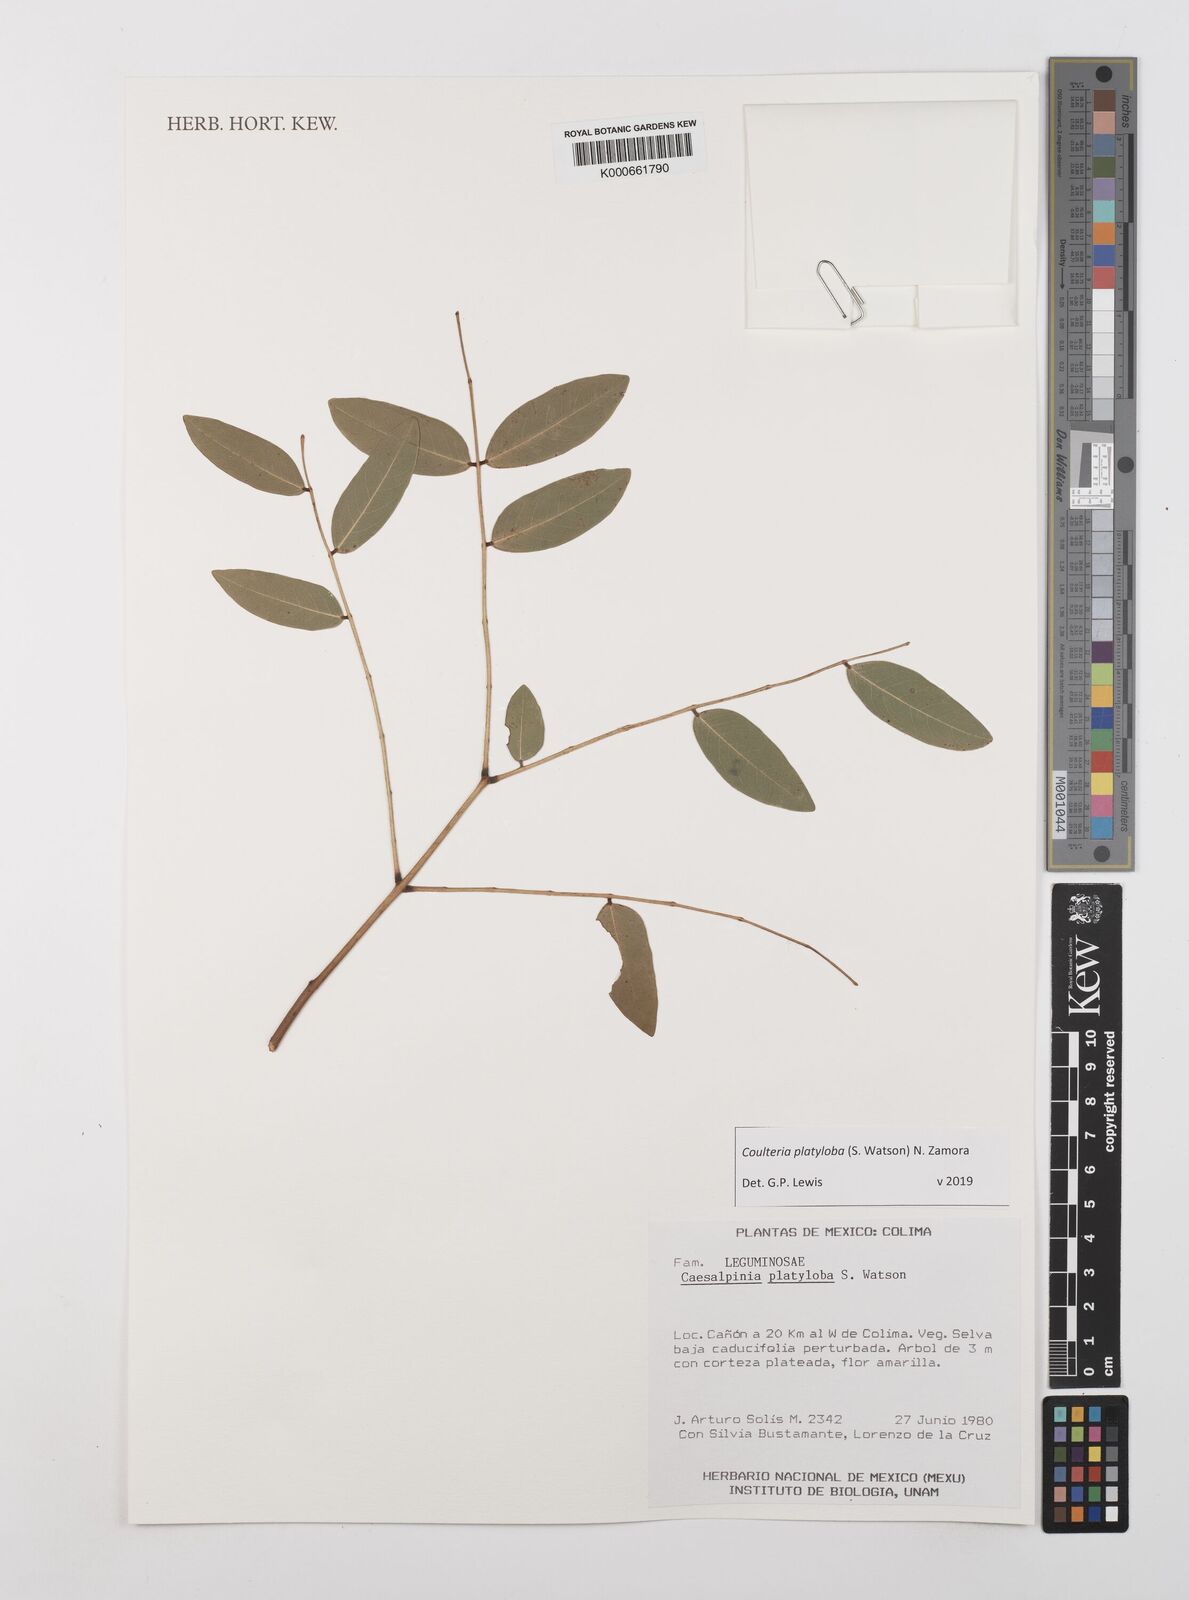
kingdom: Plantae
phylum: Tracheophyta
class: Magnoliopsida
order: Fabales
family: Fabaceae
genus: Coulteria
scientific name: Coulteria platyloba
